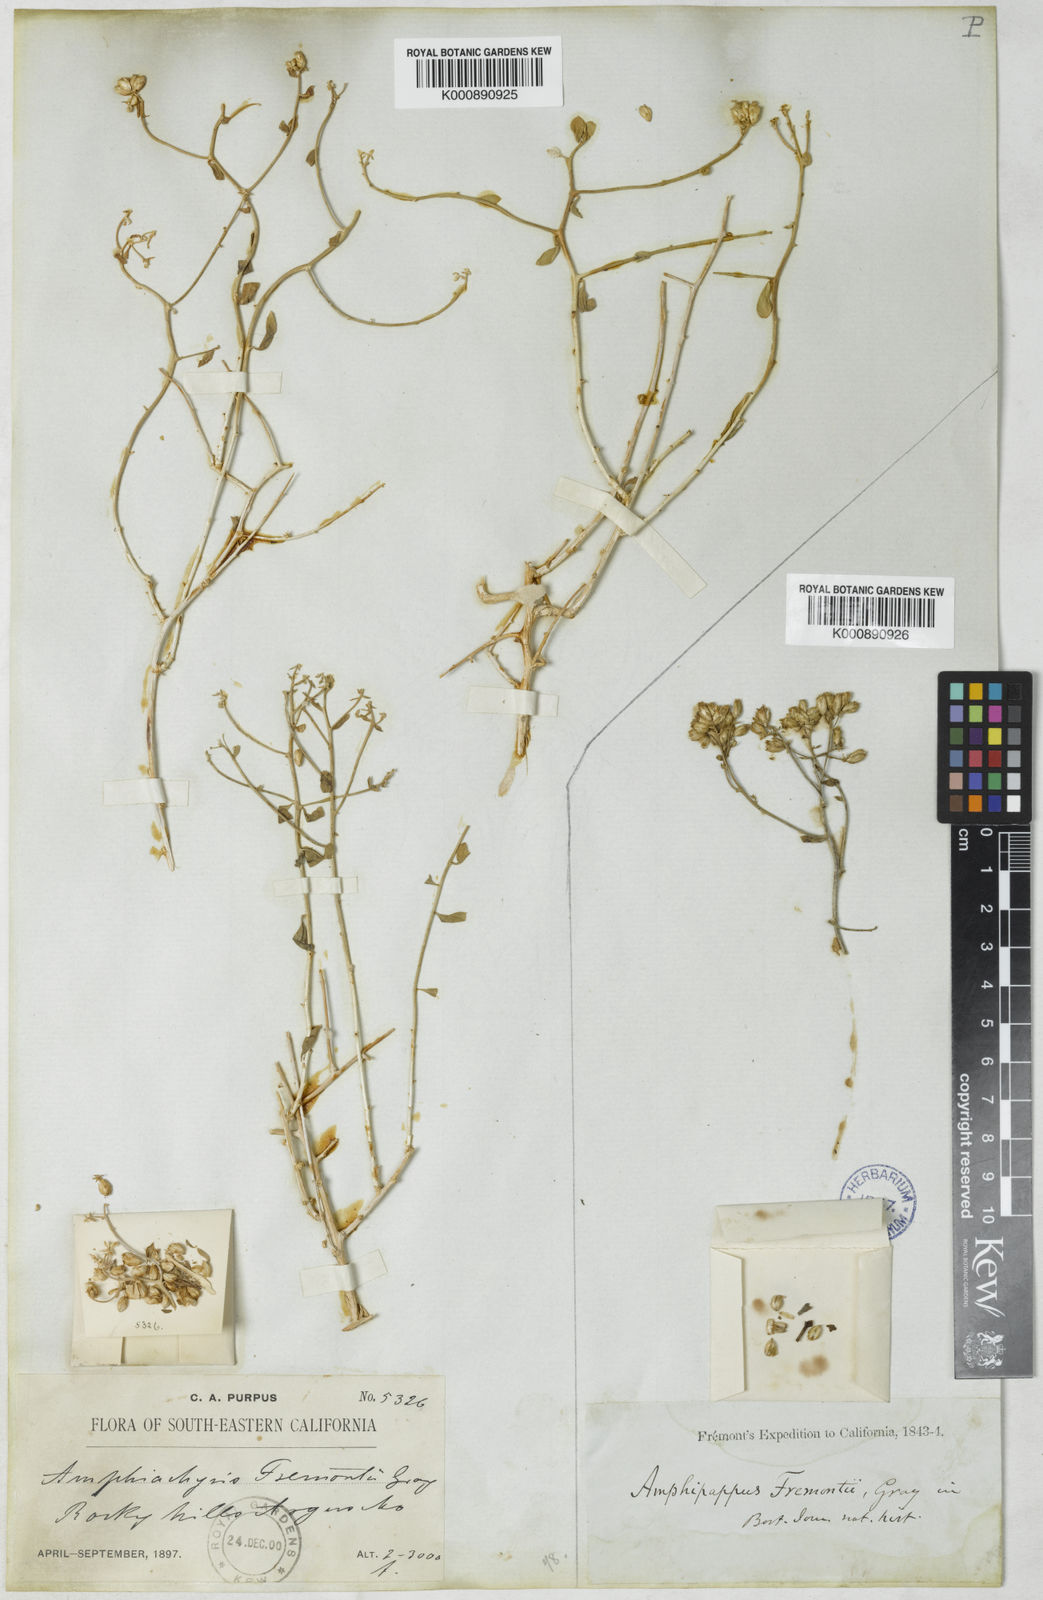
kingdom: Plantae
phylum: Tracheophyta
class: Magnoliopsida
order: Asterales
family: Asteraceae
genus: Solidago
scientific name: Solidago
